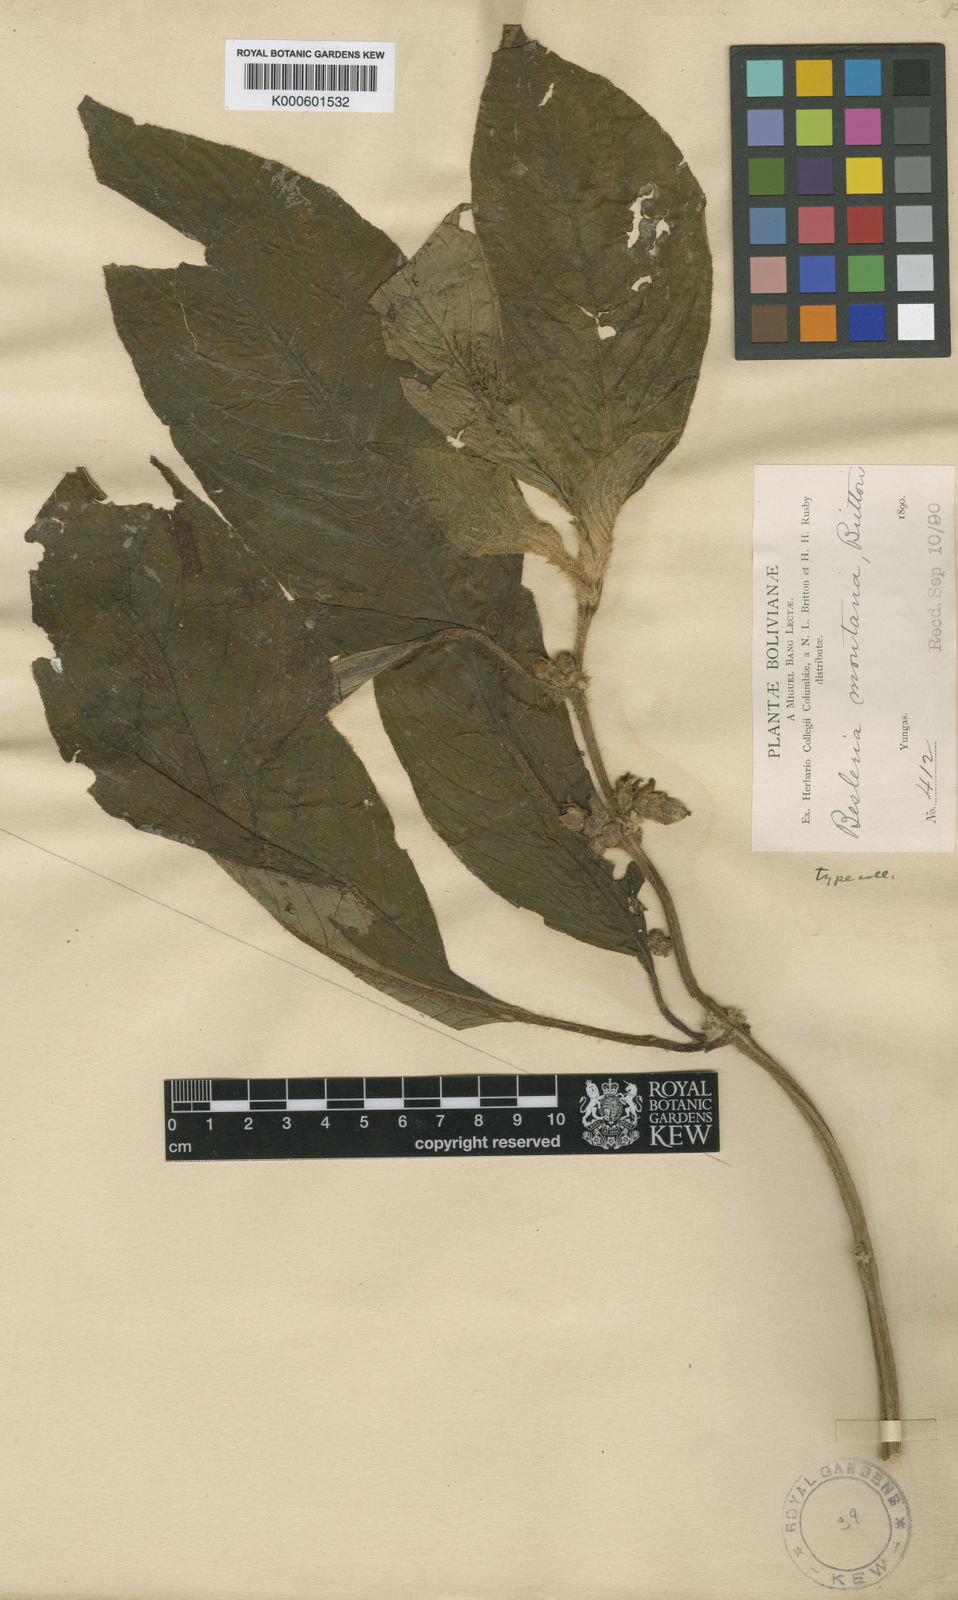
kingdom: Plantae
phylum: Tracheophyta
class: Magnoliopsida
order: Lamiales
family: Gesneriaceae
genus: Besleria
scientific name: Besleria montana
